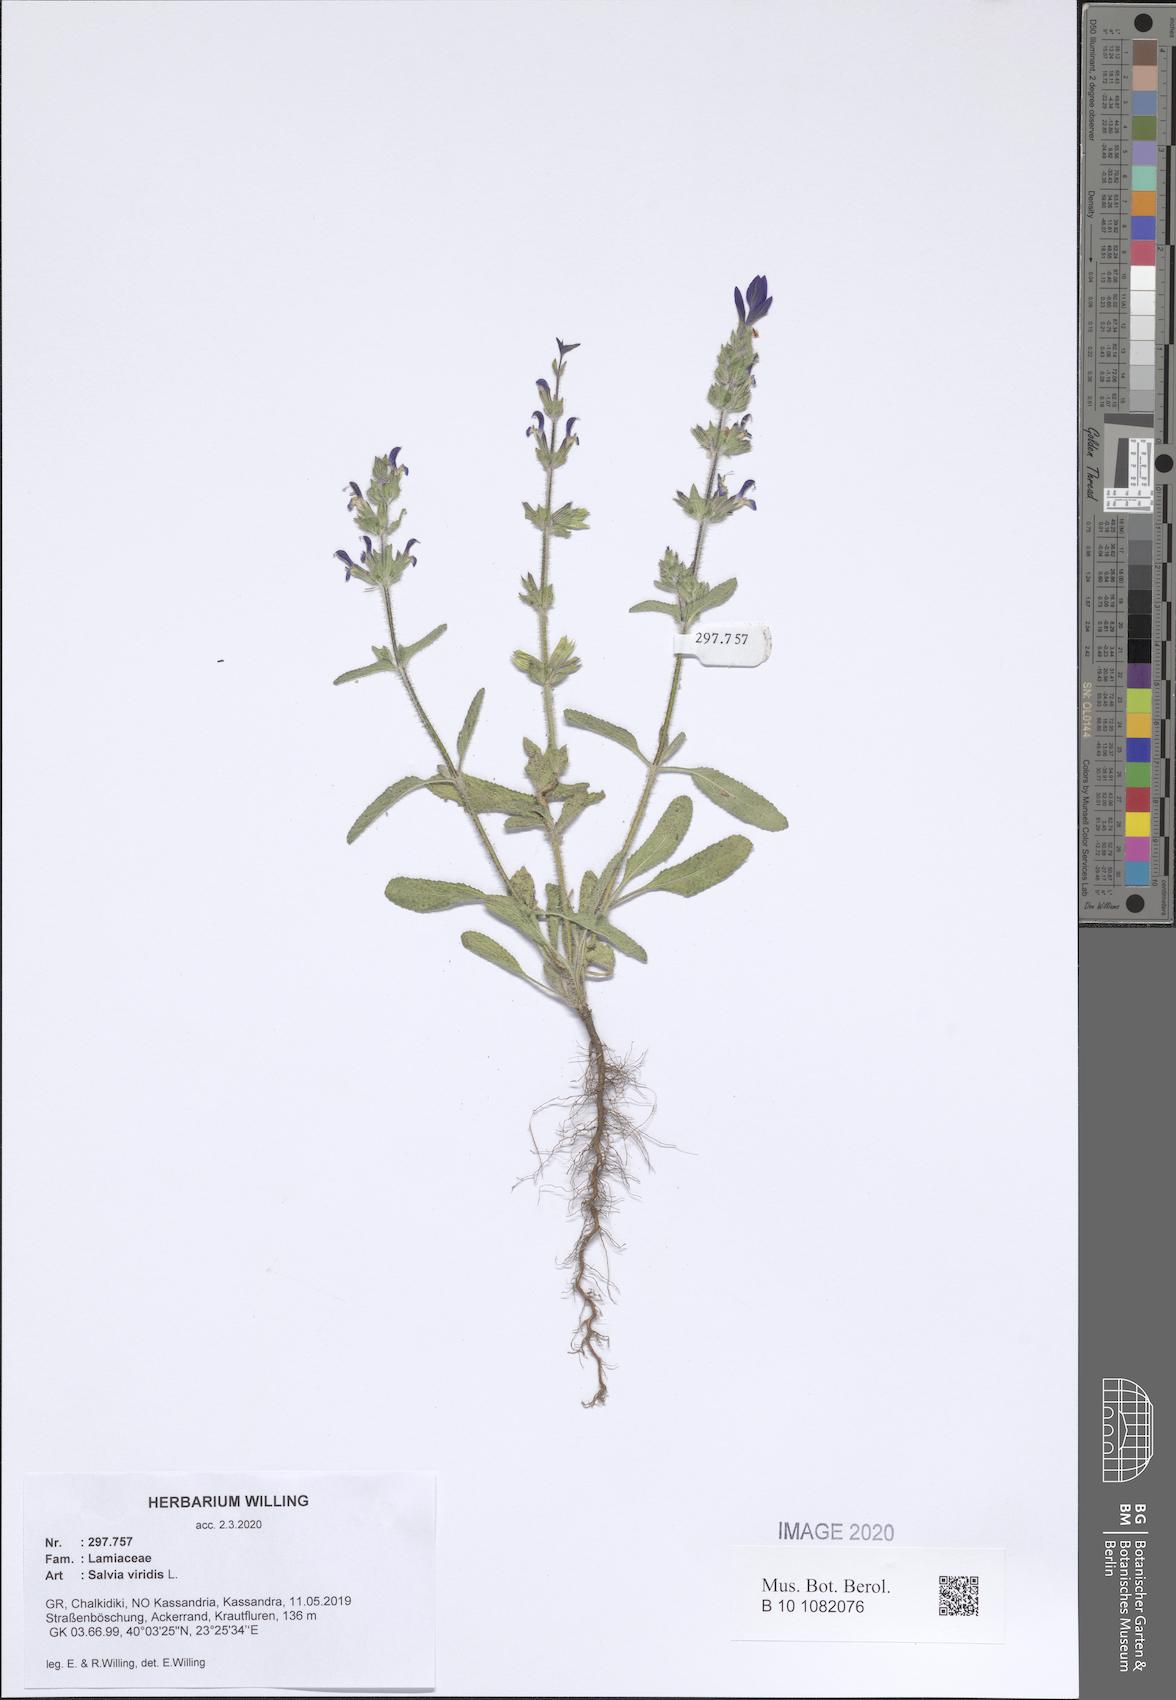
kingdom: Plantae
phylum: Tracheophyta
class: Magnoliopsida
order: Lamiales
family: Lamiaceae
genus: Salvia
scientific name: Salvia viridis
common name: Annual clary
